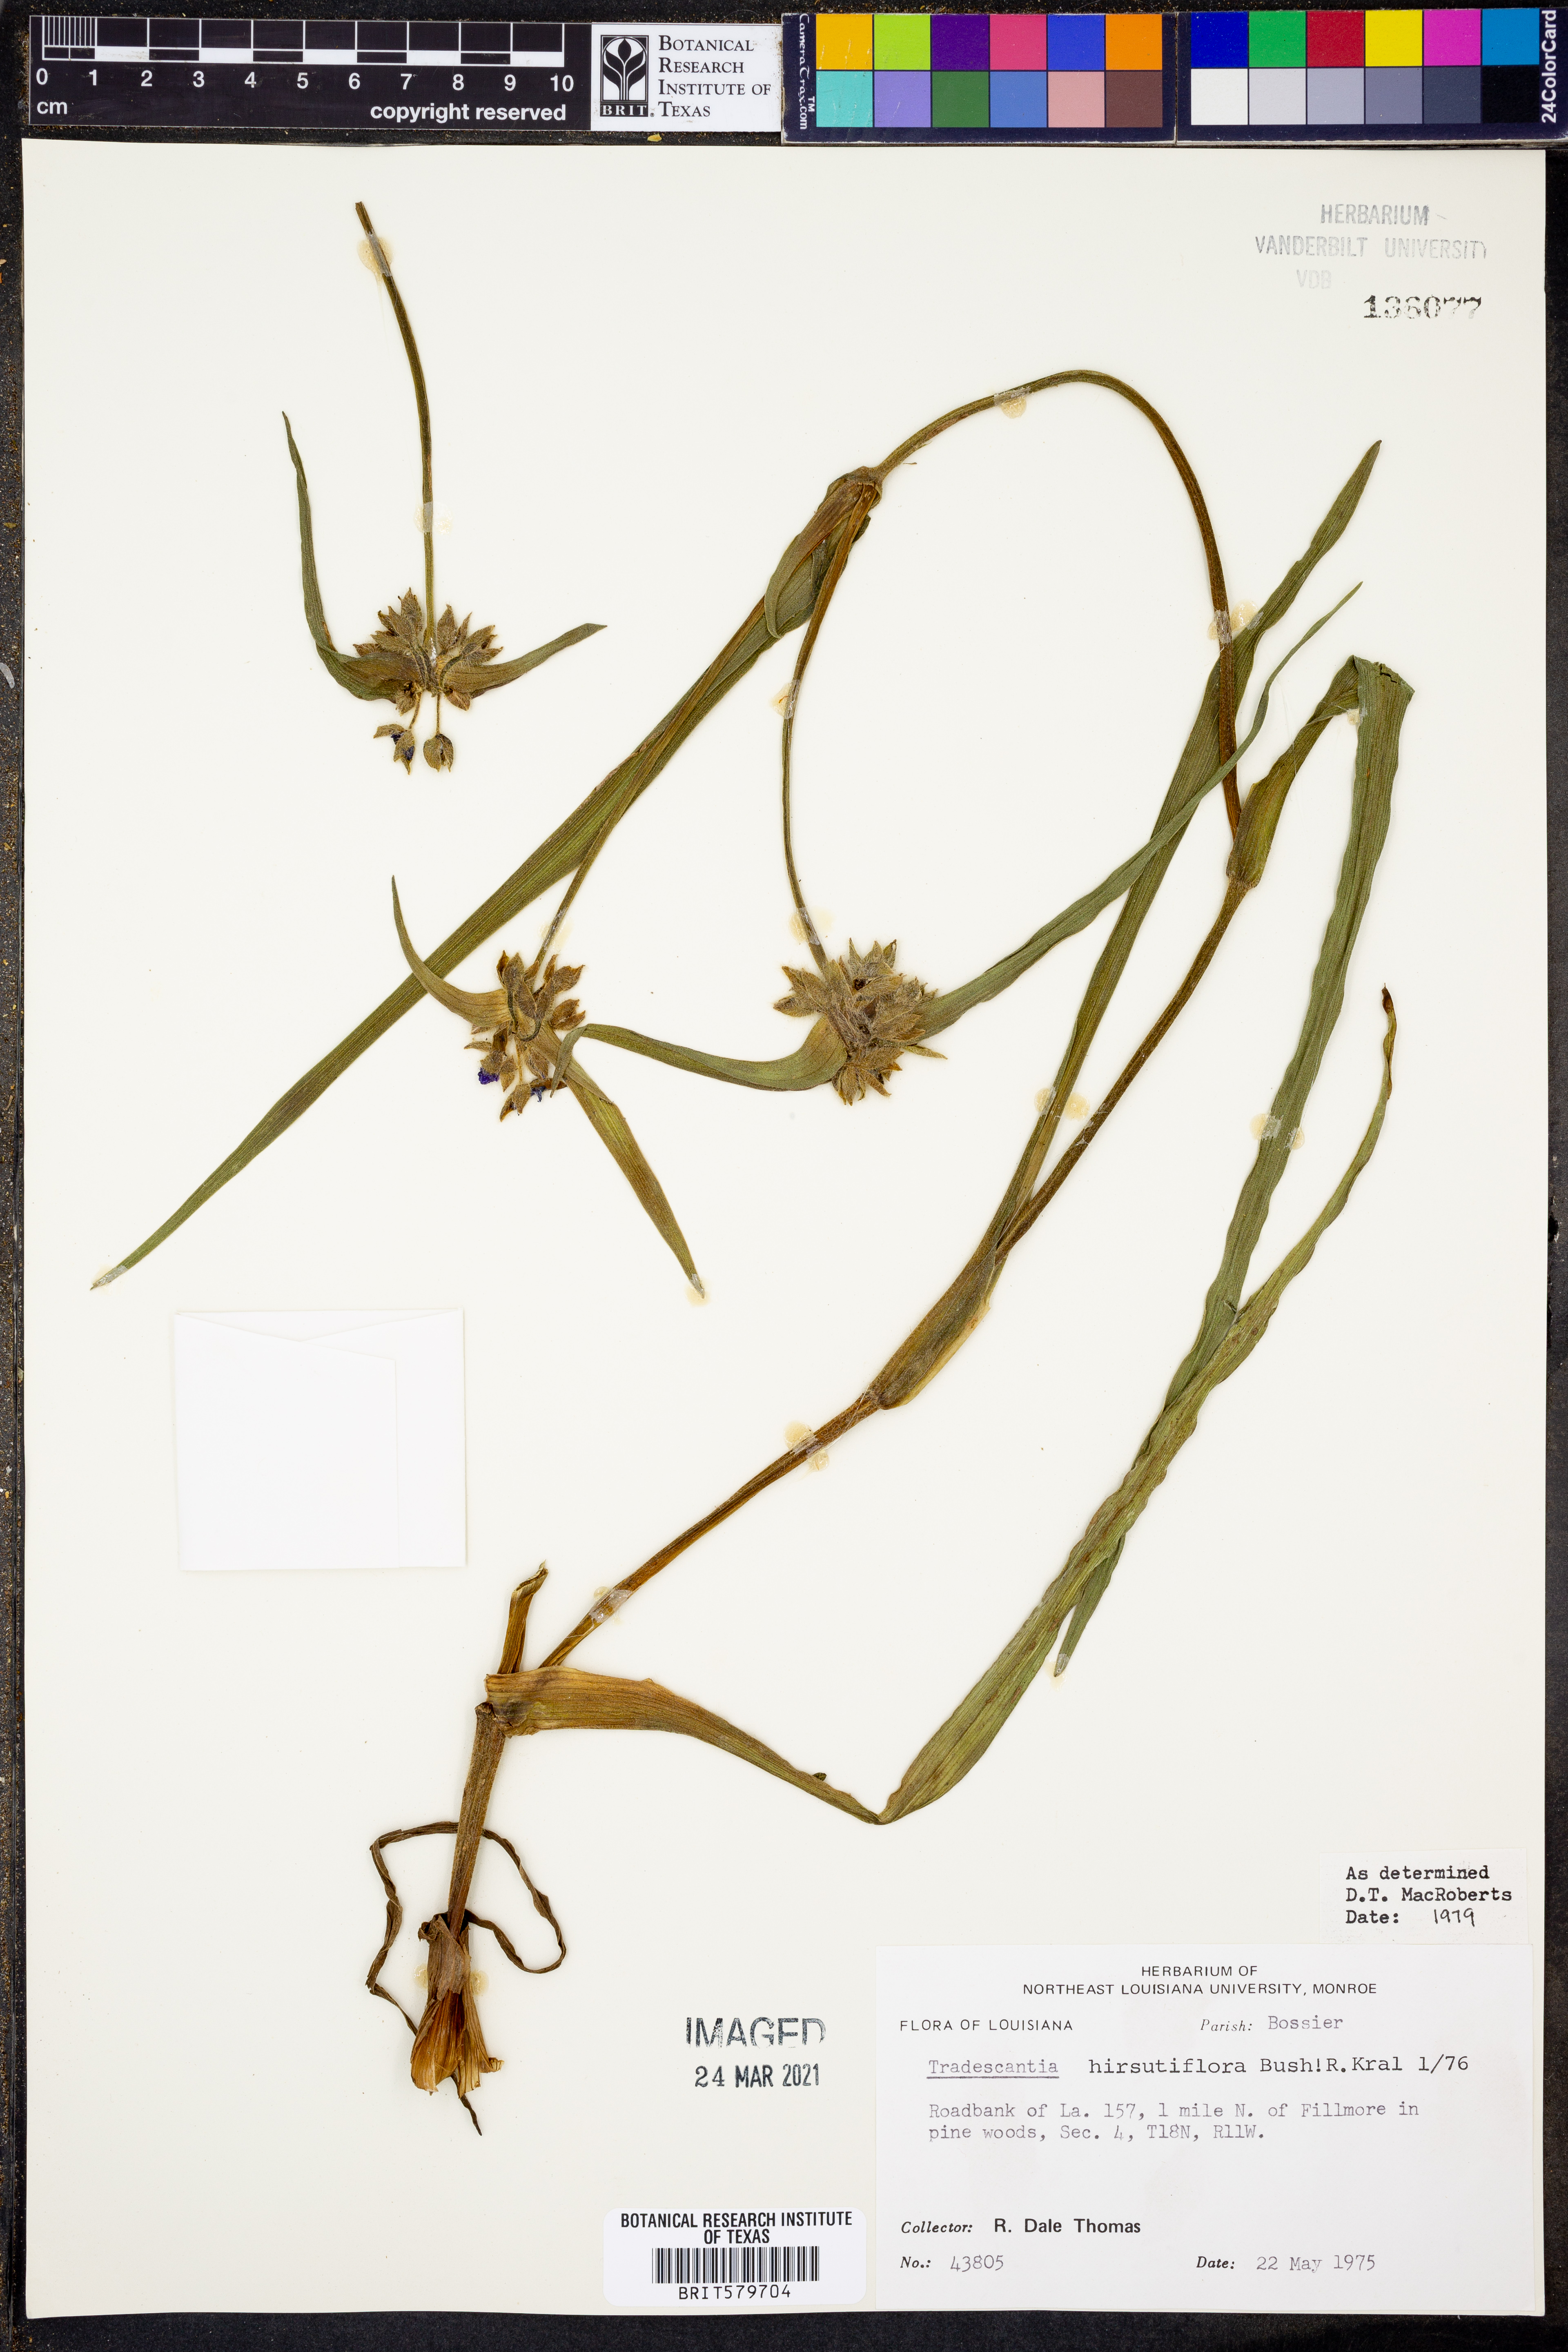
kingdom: Plantae
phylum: Tracheophyta
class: Liliopsida
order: Commelinales
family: Commelinaceae
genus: Tradescantia
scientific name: Tradescantia hirsutiflora
